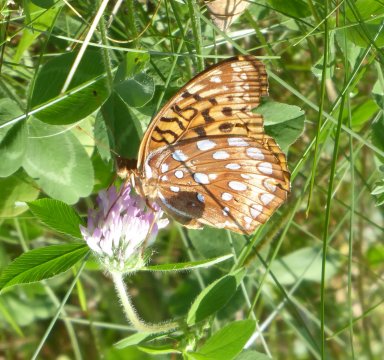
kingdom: Animalia
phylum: Arthropoda
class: Insecta
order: Lepidoptera
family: Nymphalidae
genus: Speyeria
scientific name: Speyeria cybele
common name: Great Spangled Fritillary
